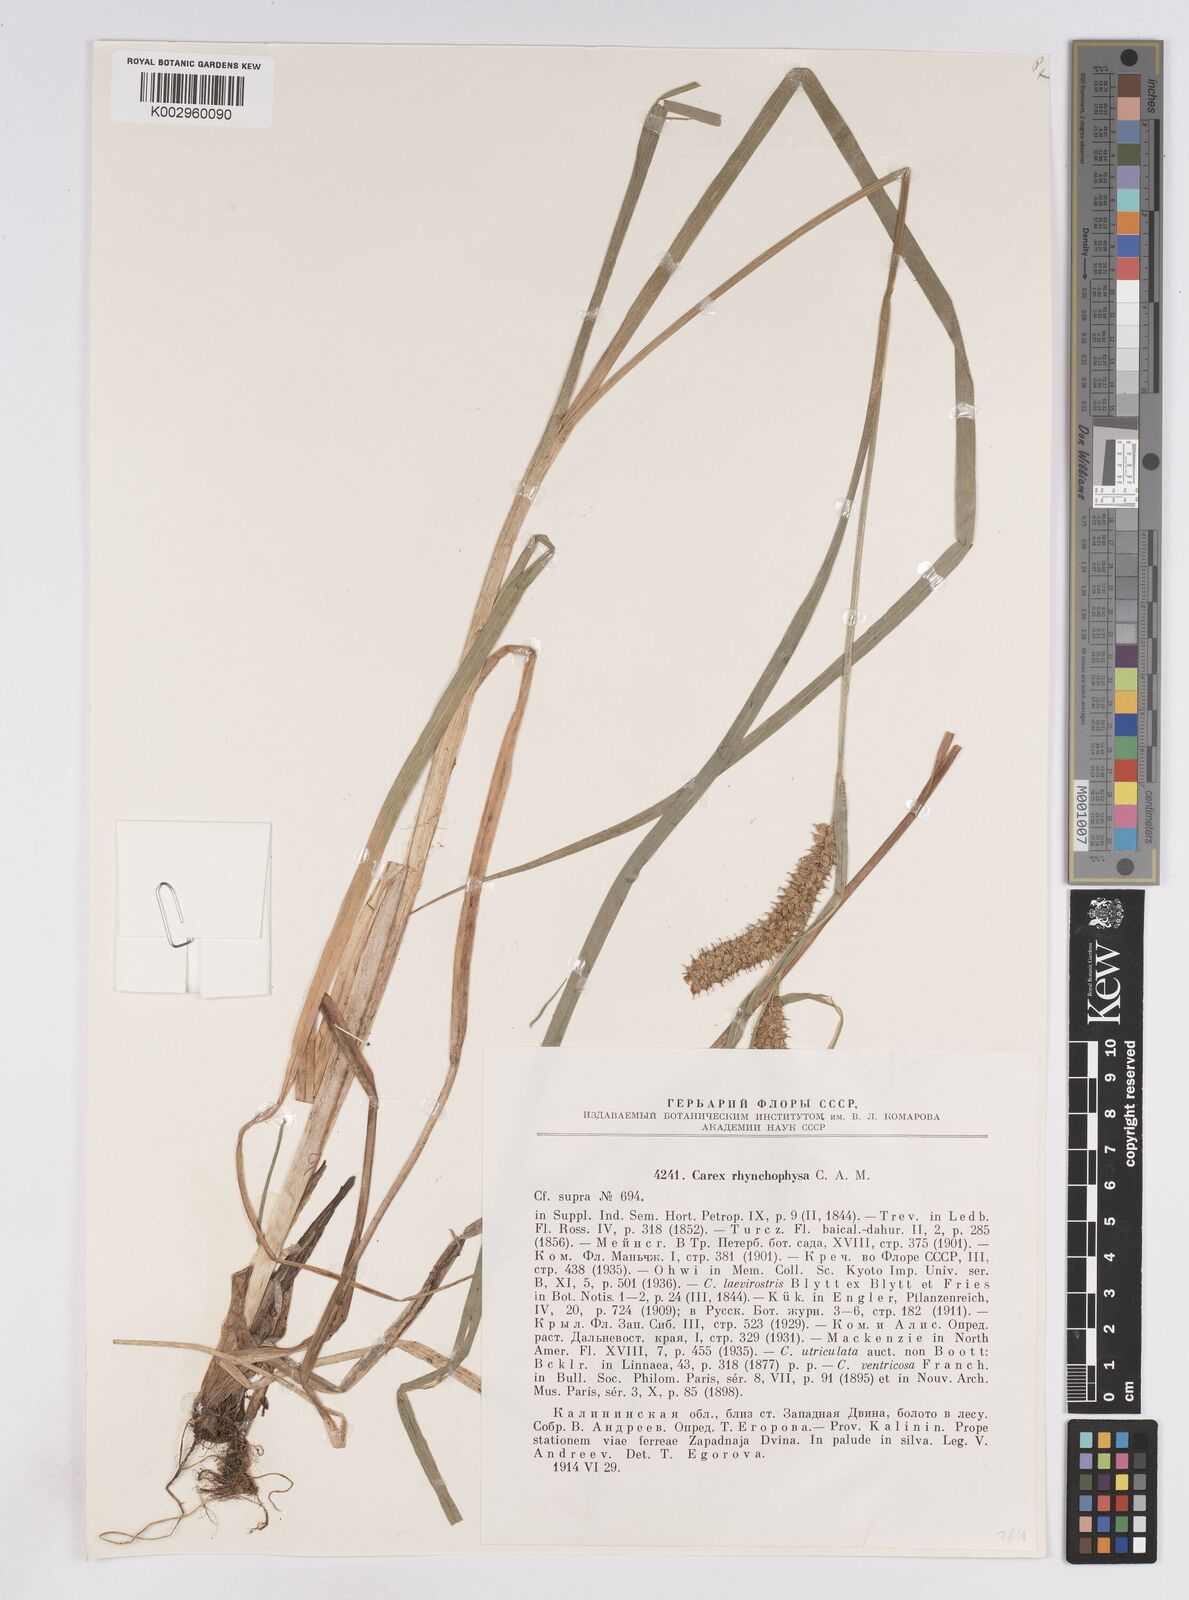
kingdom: Plantae
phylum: Tracheophyta
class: Liliopsida
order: Poales
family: Cyperaceae
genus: Carex
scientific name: Carex utriculata
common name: Beaked sedge
